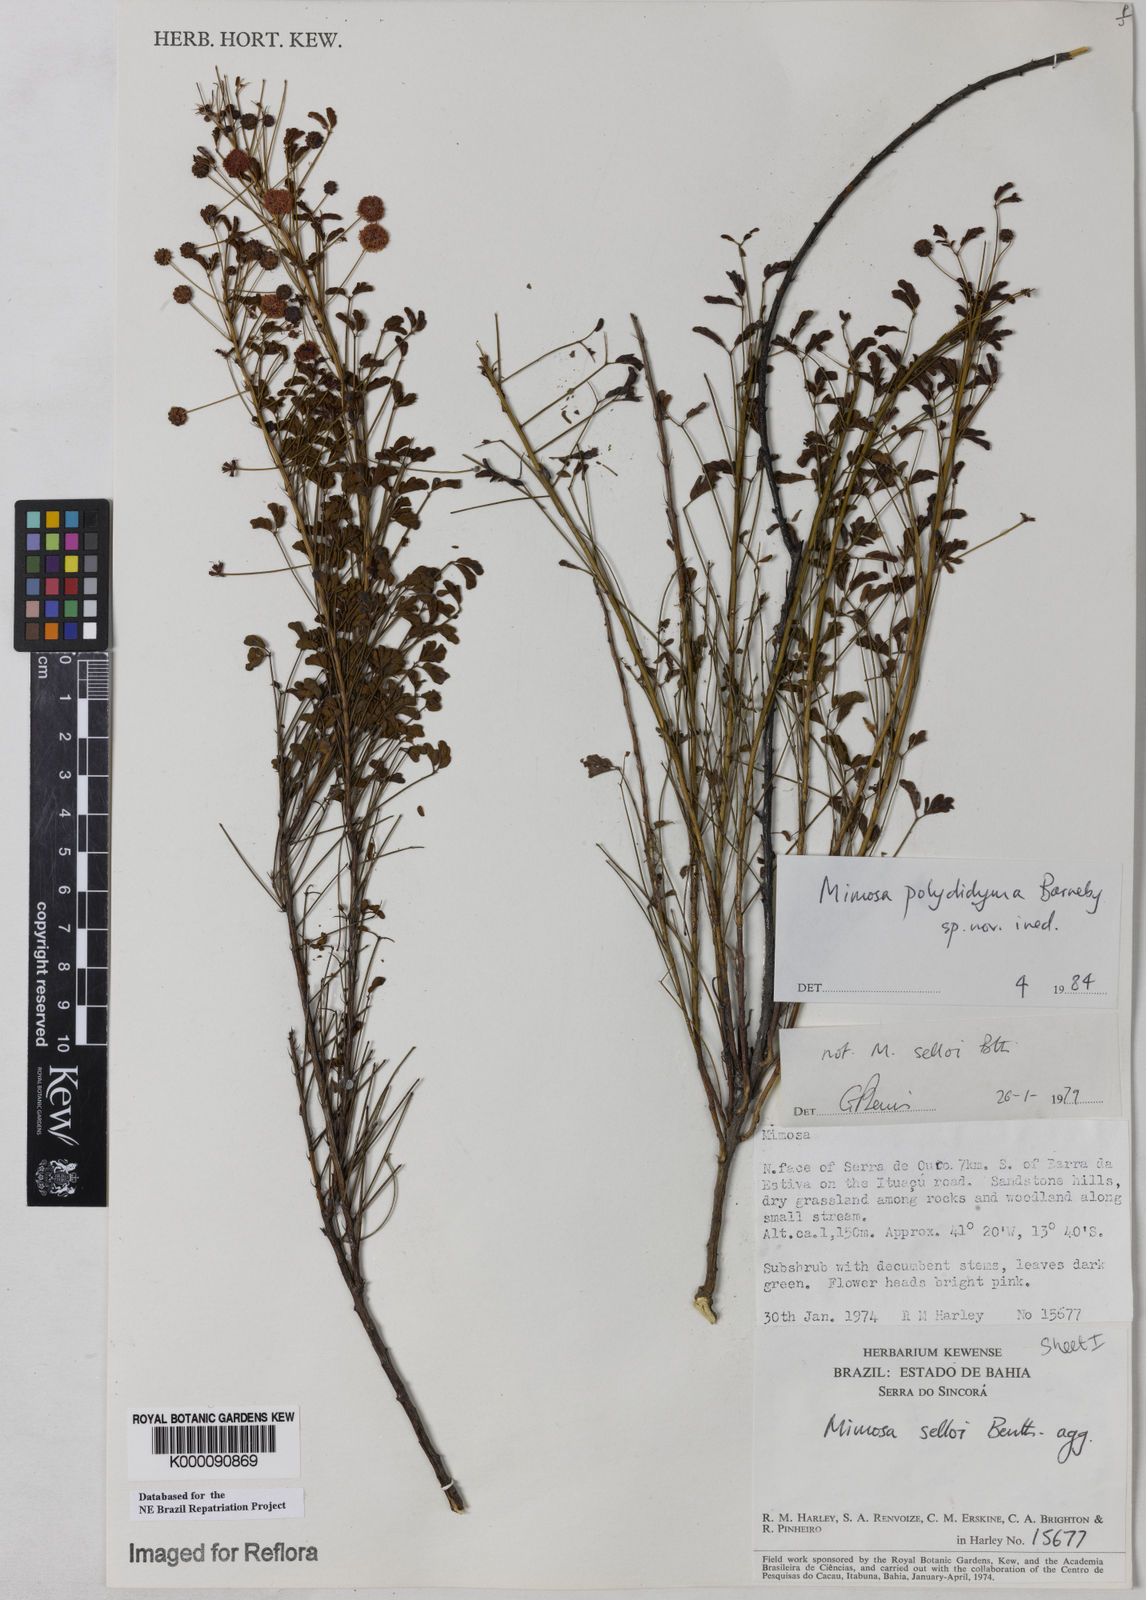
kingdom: Plantae
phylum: Tracheophyta
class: Magnoliopsida
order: Fabales
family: Fabaceae
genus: Mimosa
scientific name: Mimosa polydidyma
